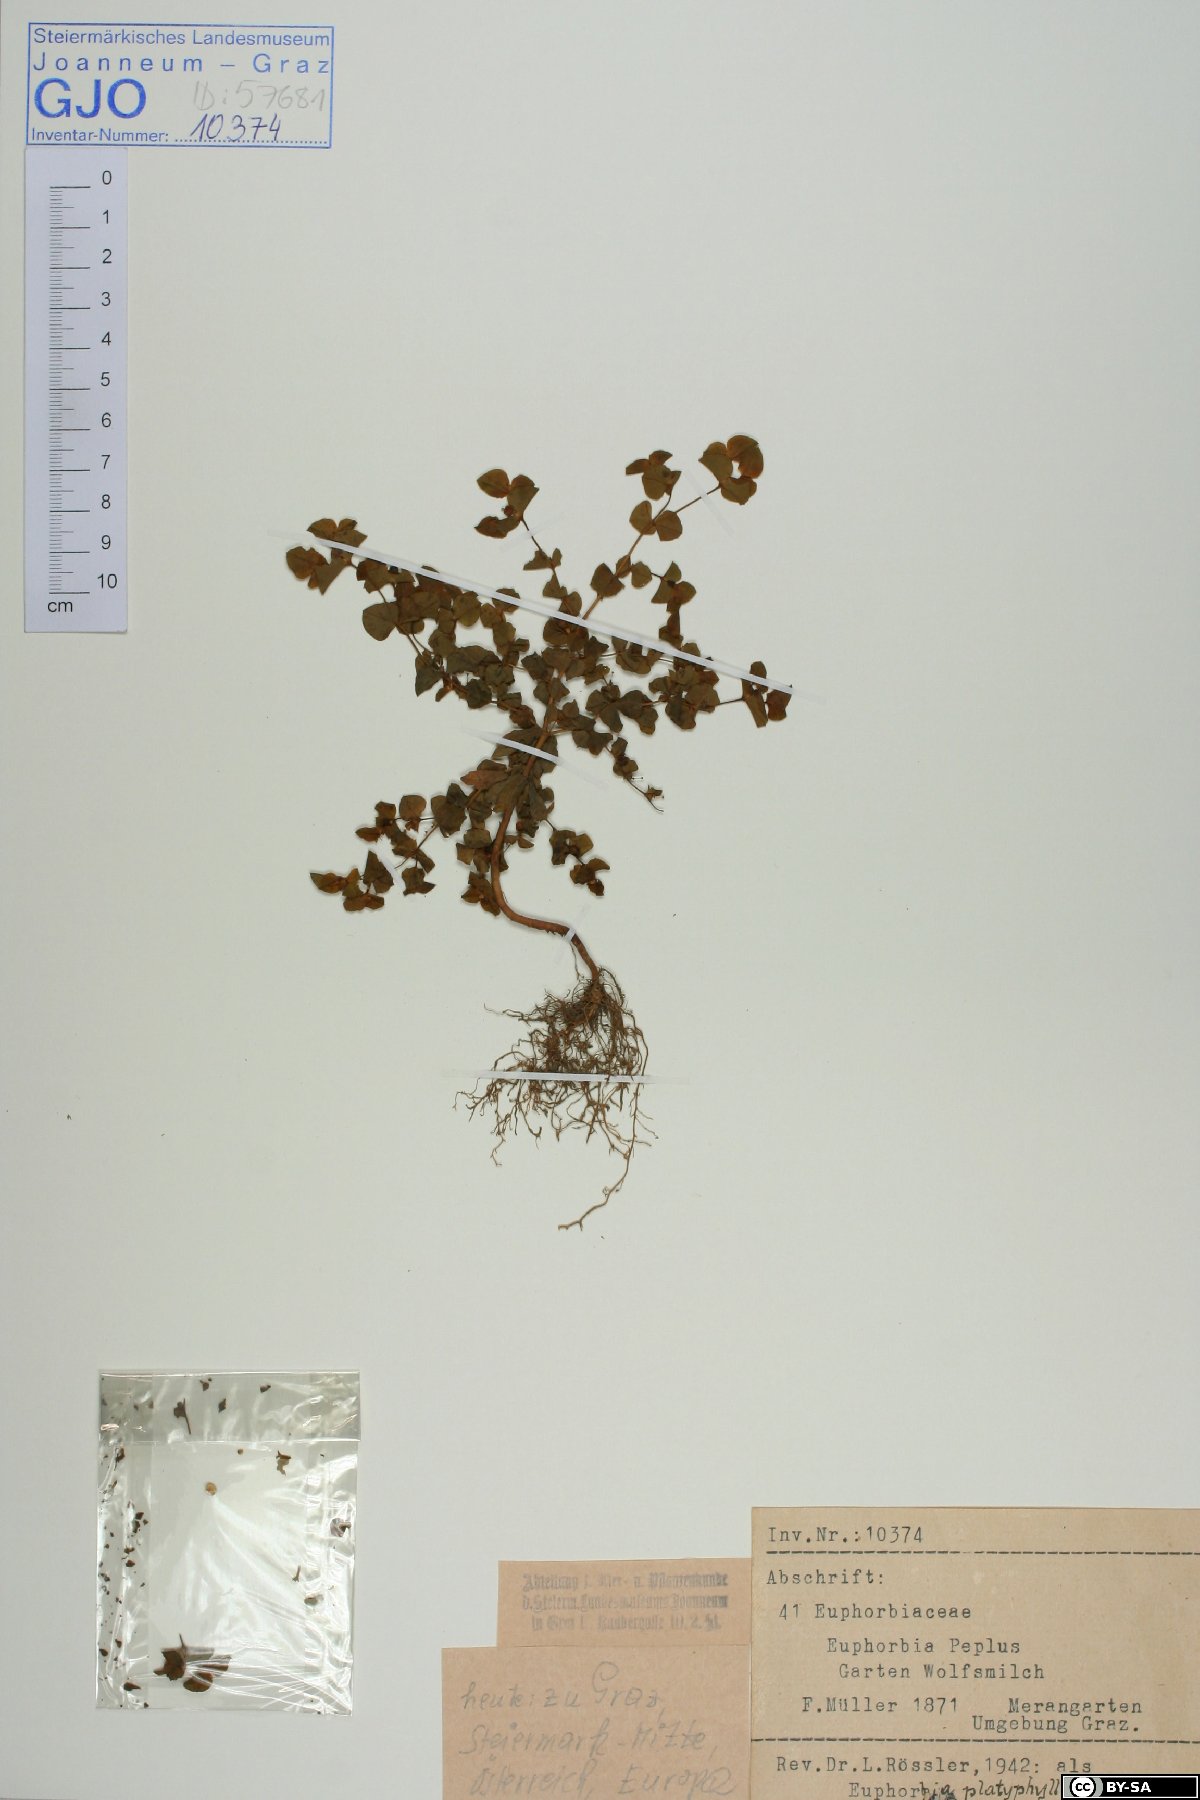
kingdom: Plantae
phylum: Tracheophyta
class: Magnoliopsida
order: Malpighiales
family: Euphorbiaceae
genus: Euphorbia
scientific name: Euphorbia platyphyllos
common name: Broad-leaved spurge
